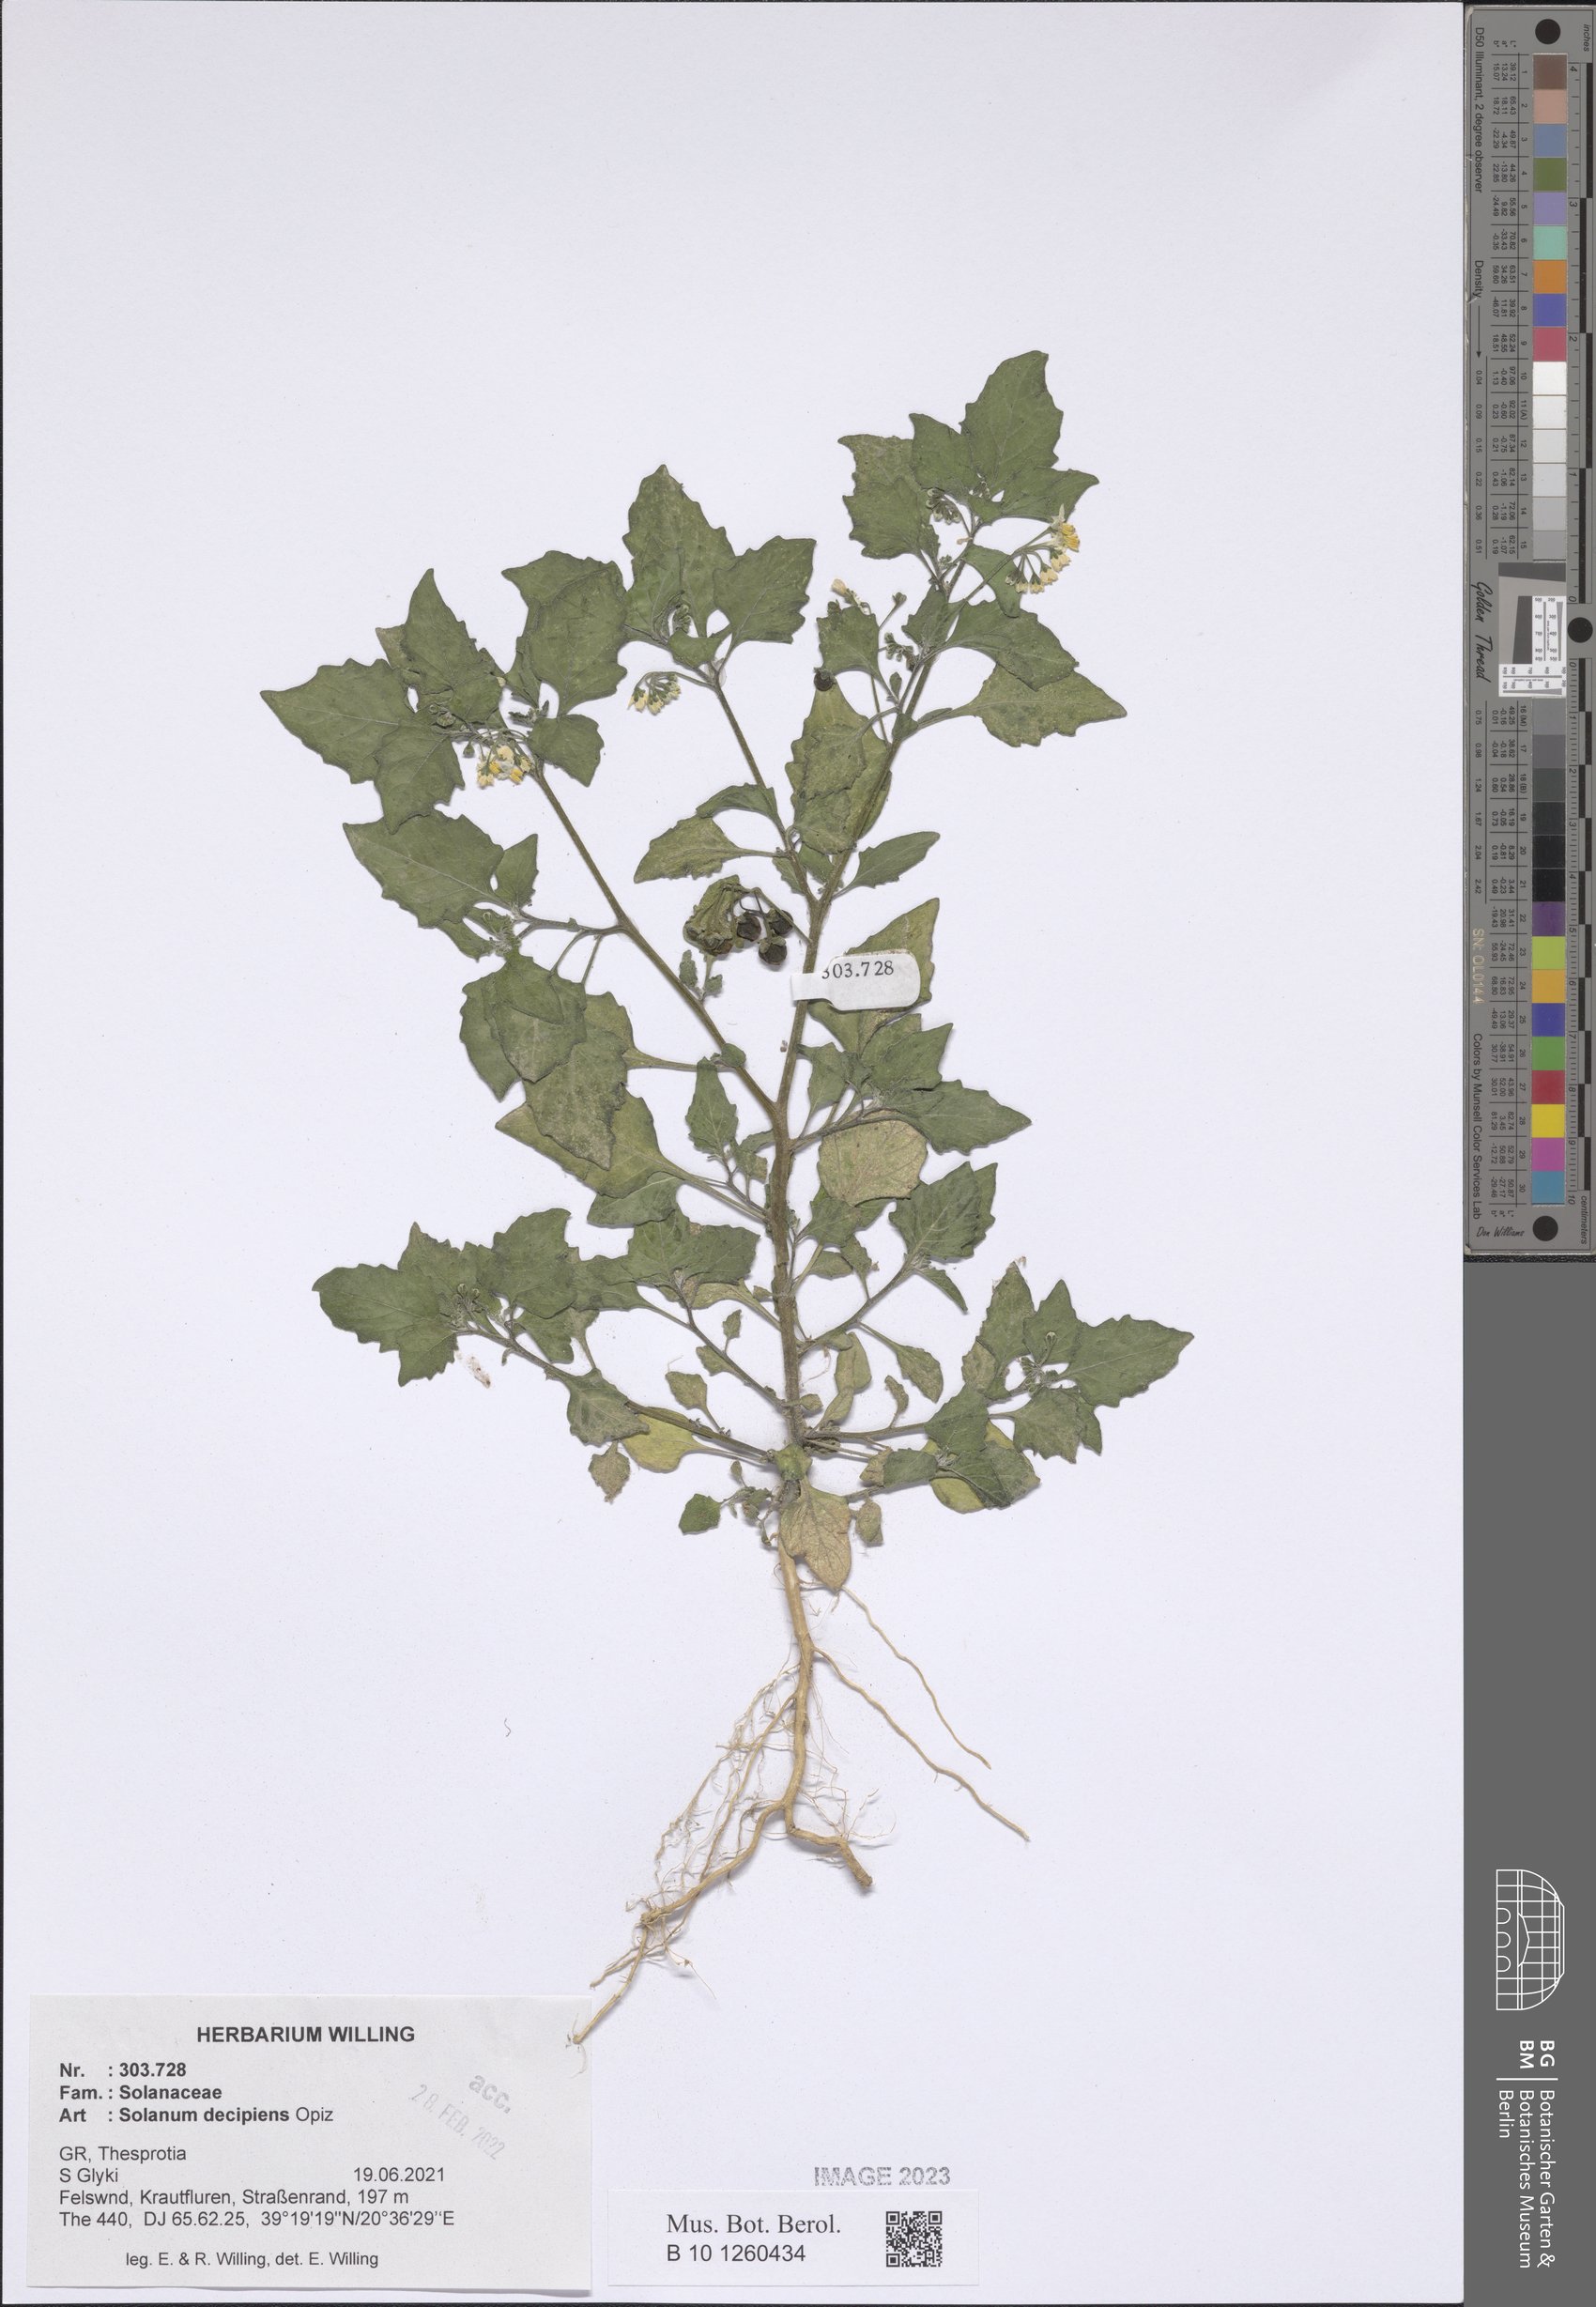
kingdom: Plantae
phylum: Tracheophyta
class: Magnoliopsida
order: Solanales
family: Solanaceae
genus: Solanum
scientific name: Solanum decipiens
